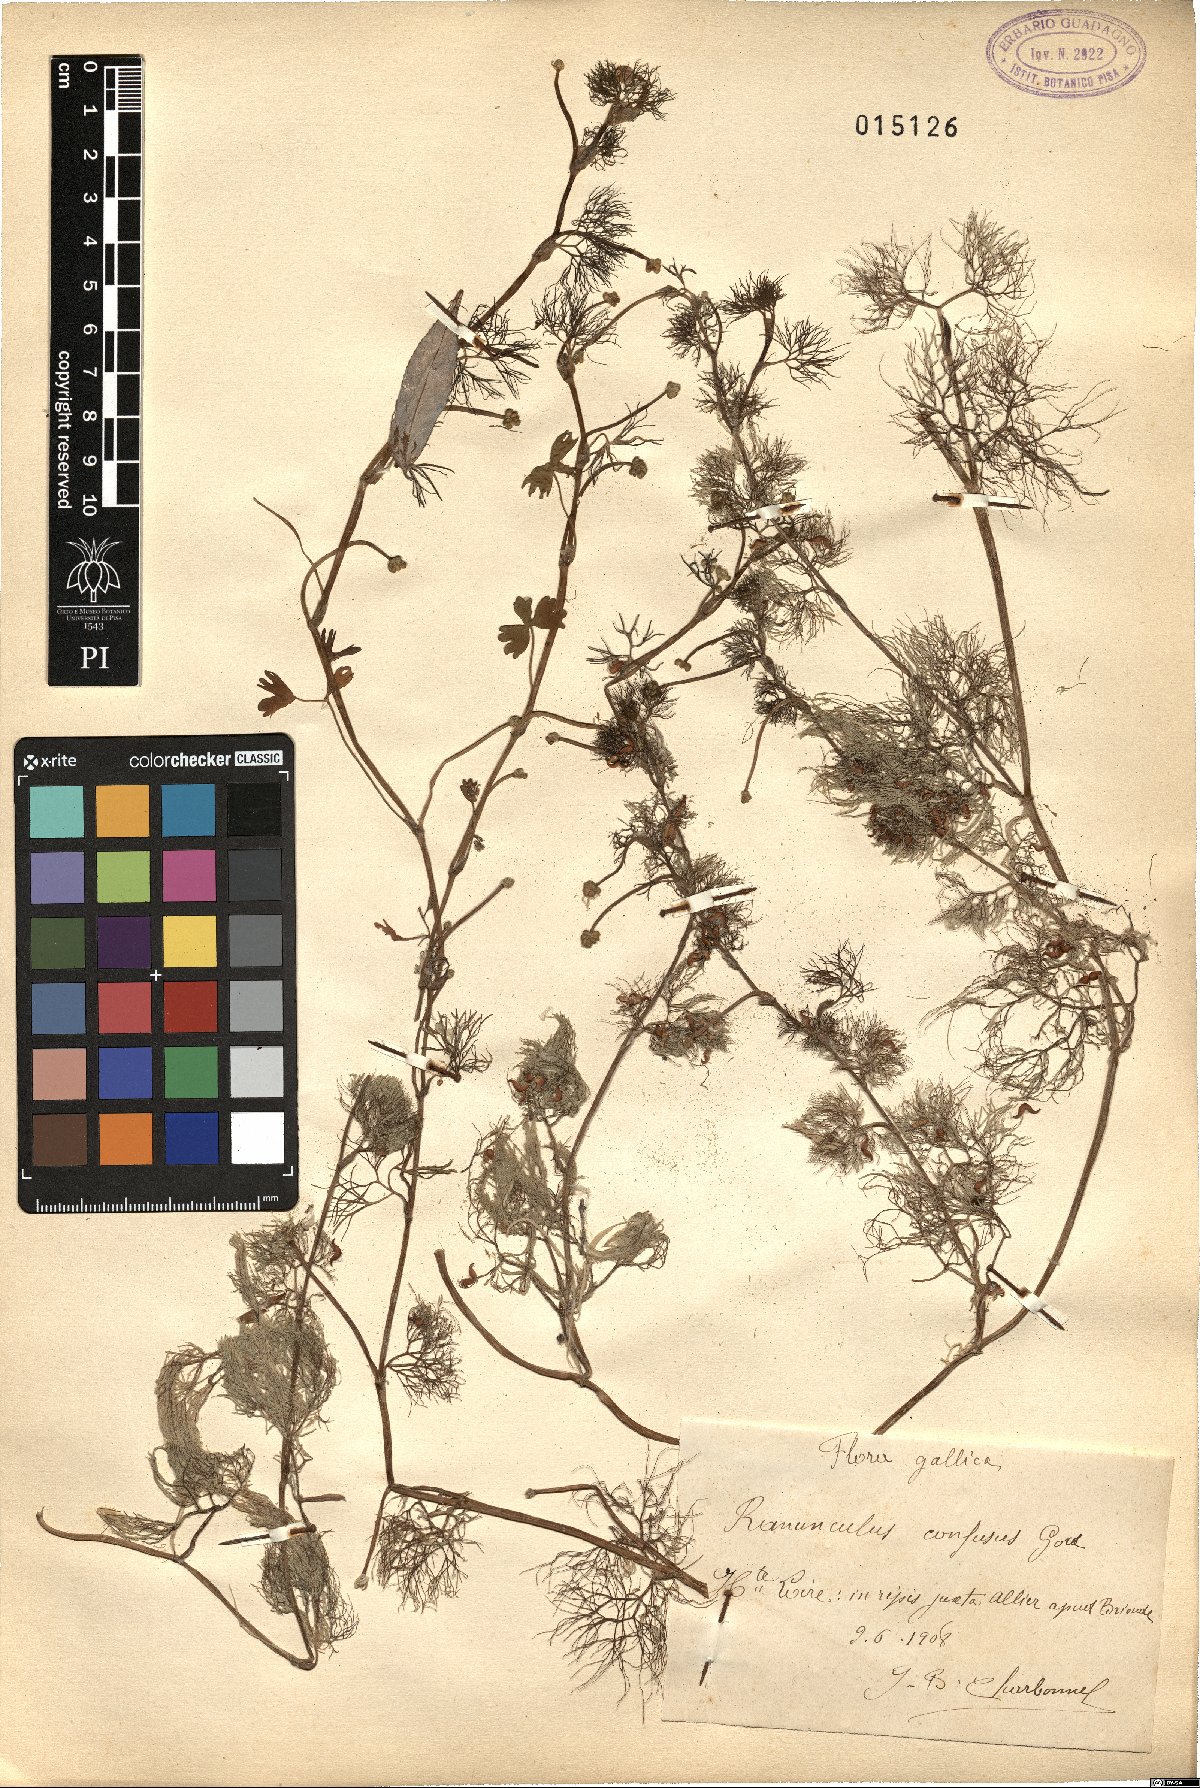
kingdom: Plantae
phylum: Tracheophyta
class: Magnoliopsida
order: Ranunculales
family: Ranunculaceae
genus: Ranunculus
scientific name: Ranunculus peltatus
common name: Pond water-crowfoot
